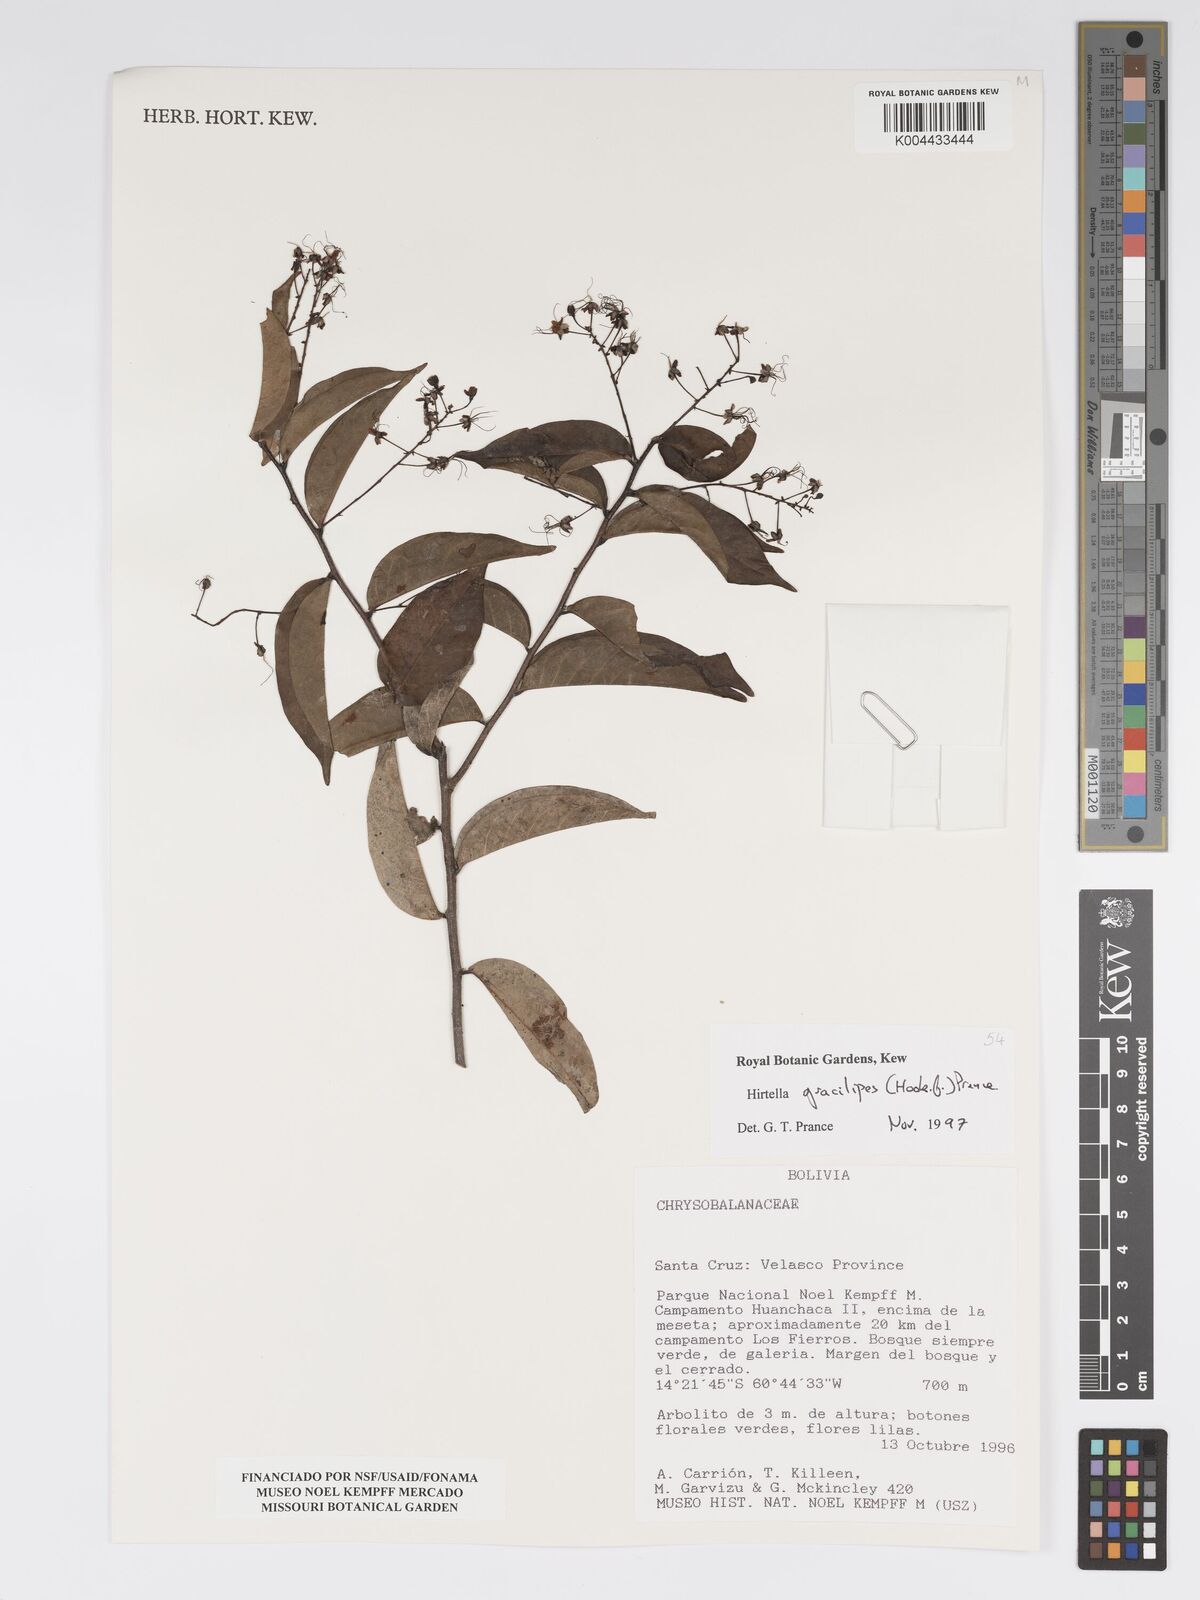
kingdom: Plantae
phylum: Tracheophyta
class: Magnoliopsida
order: Malpighiales
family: Chrysobalanaceae
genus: Hirtella
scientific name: Hirtella gracilipes
